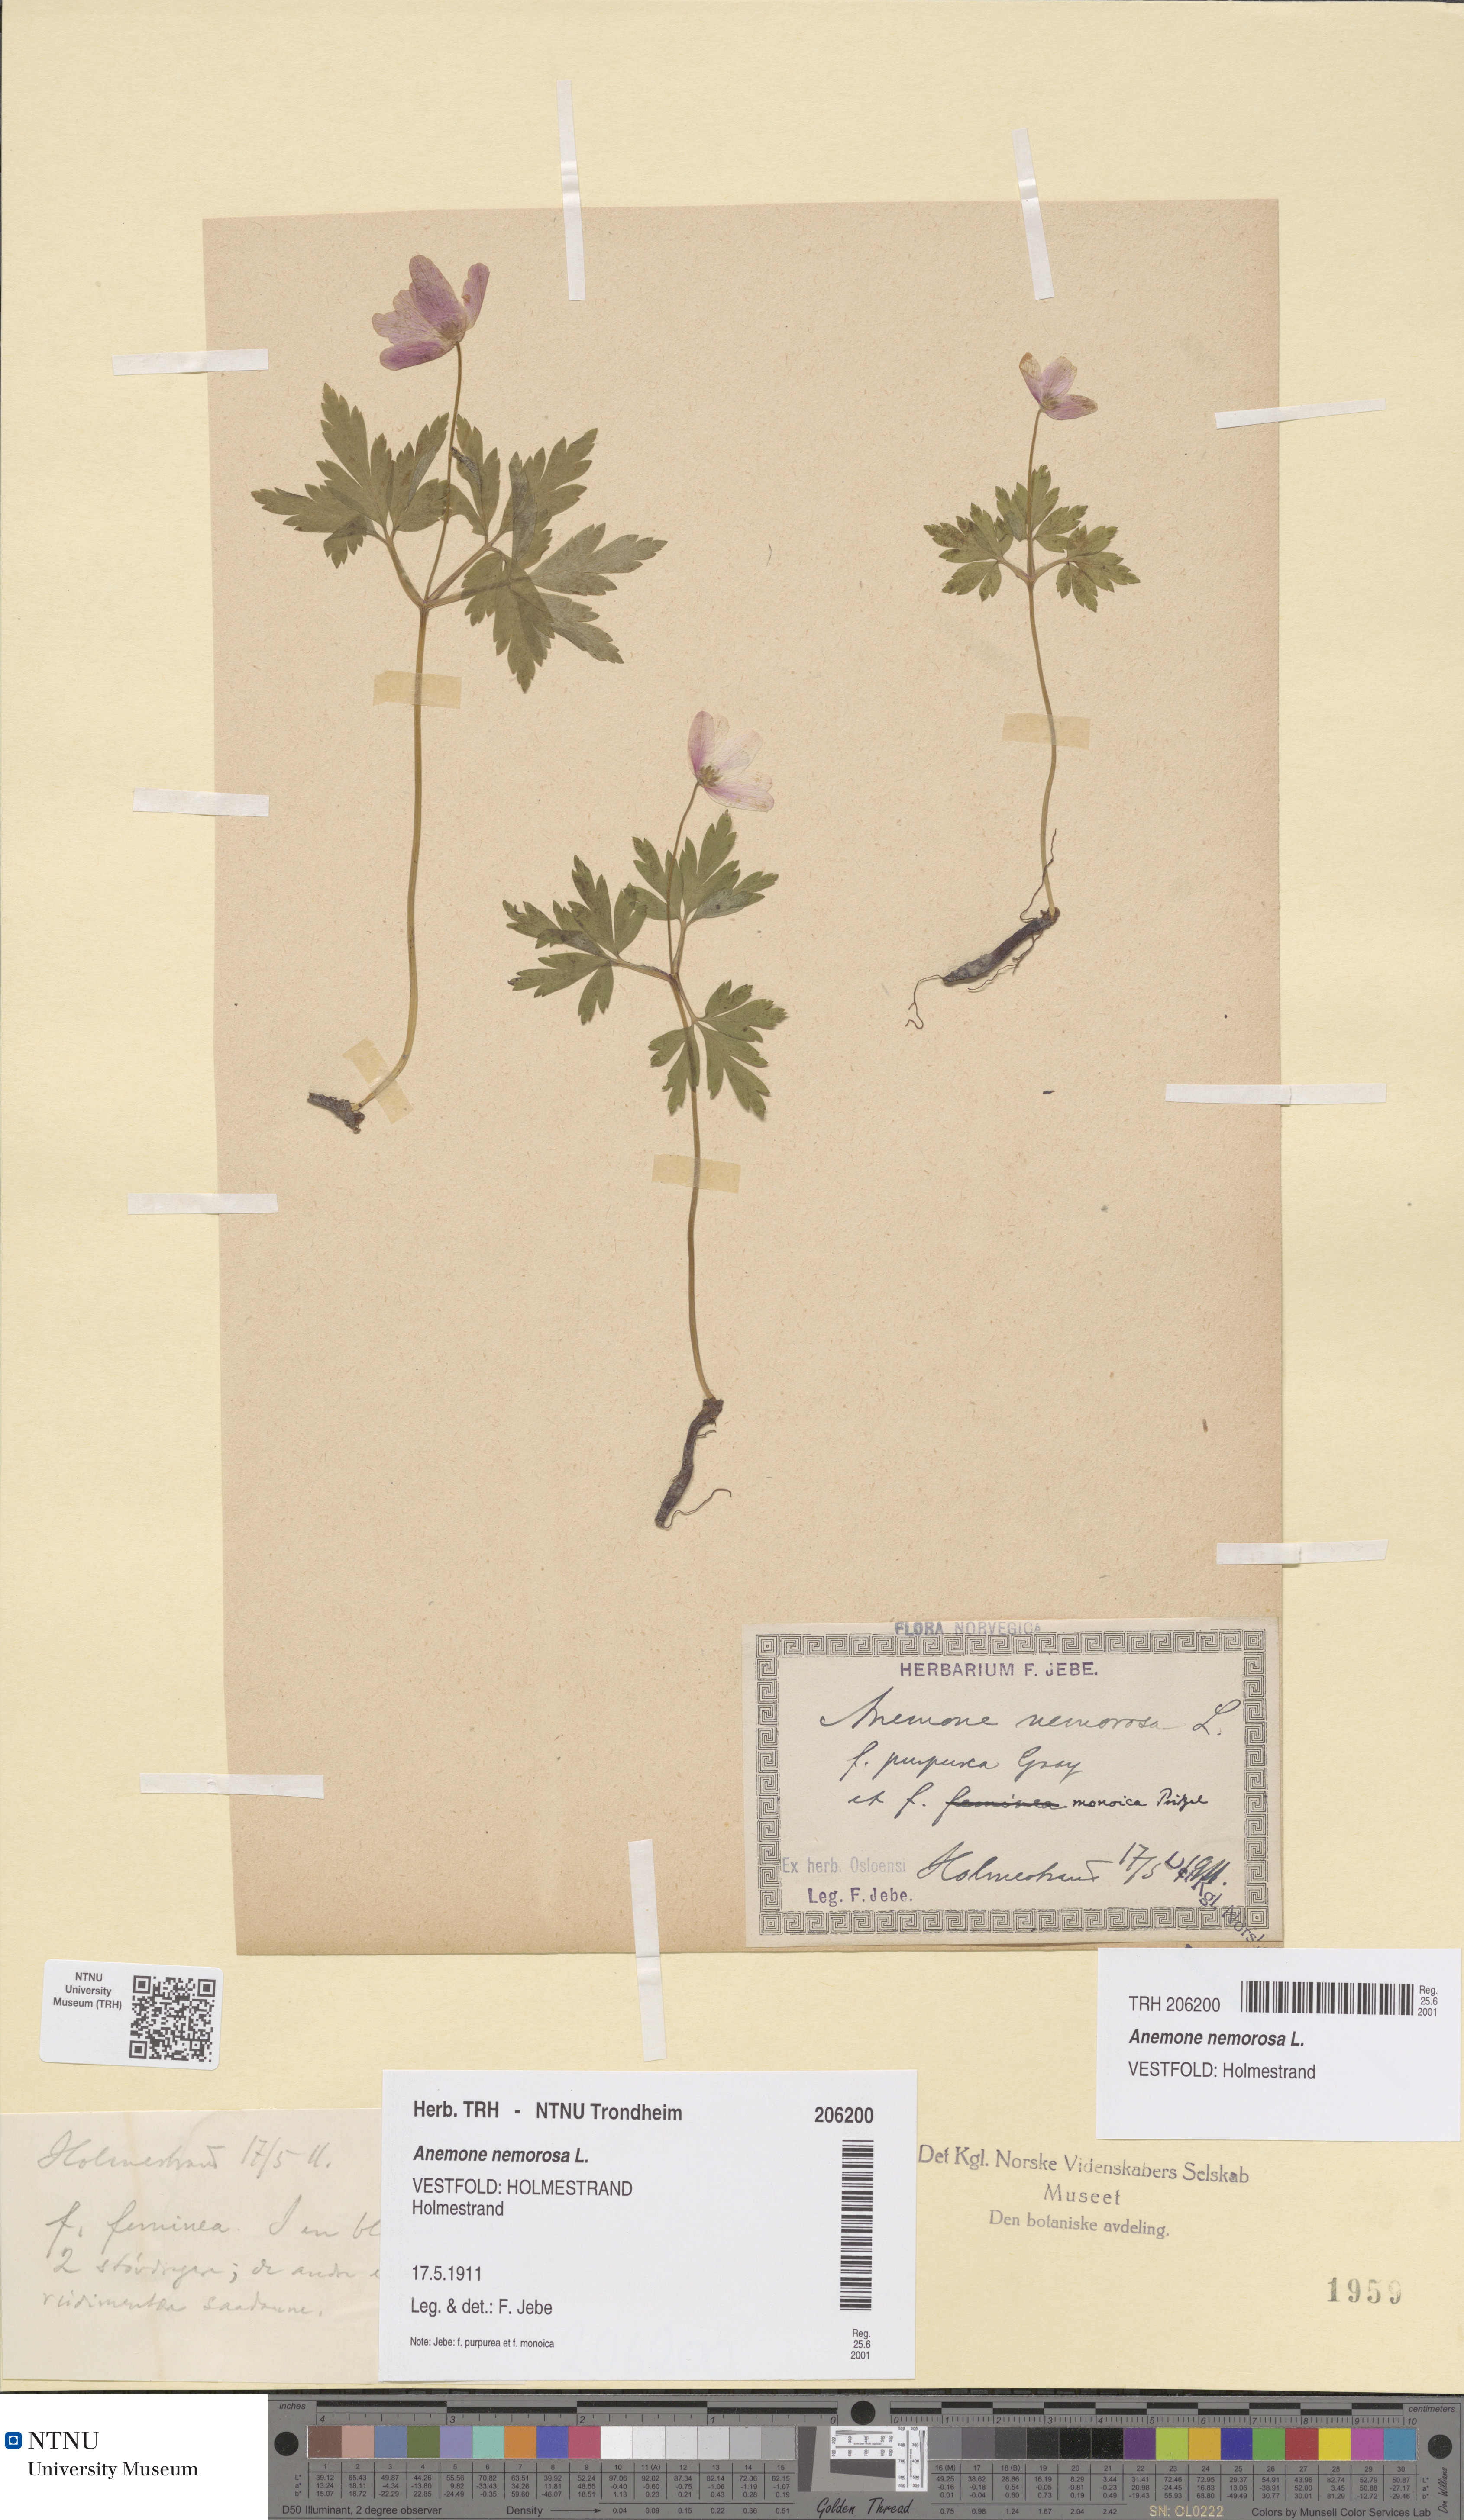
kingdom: Plantae
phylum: Tracheophyta
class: Magnoliopsida
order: Ranunculales
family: Ranunculaceae
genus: Anemone
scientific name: Anemone nemorosa
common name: Wood anemone
